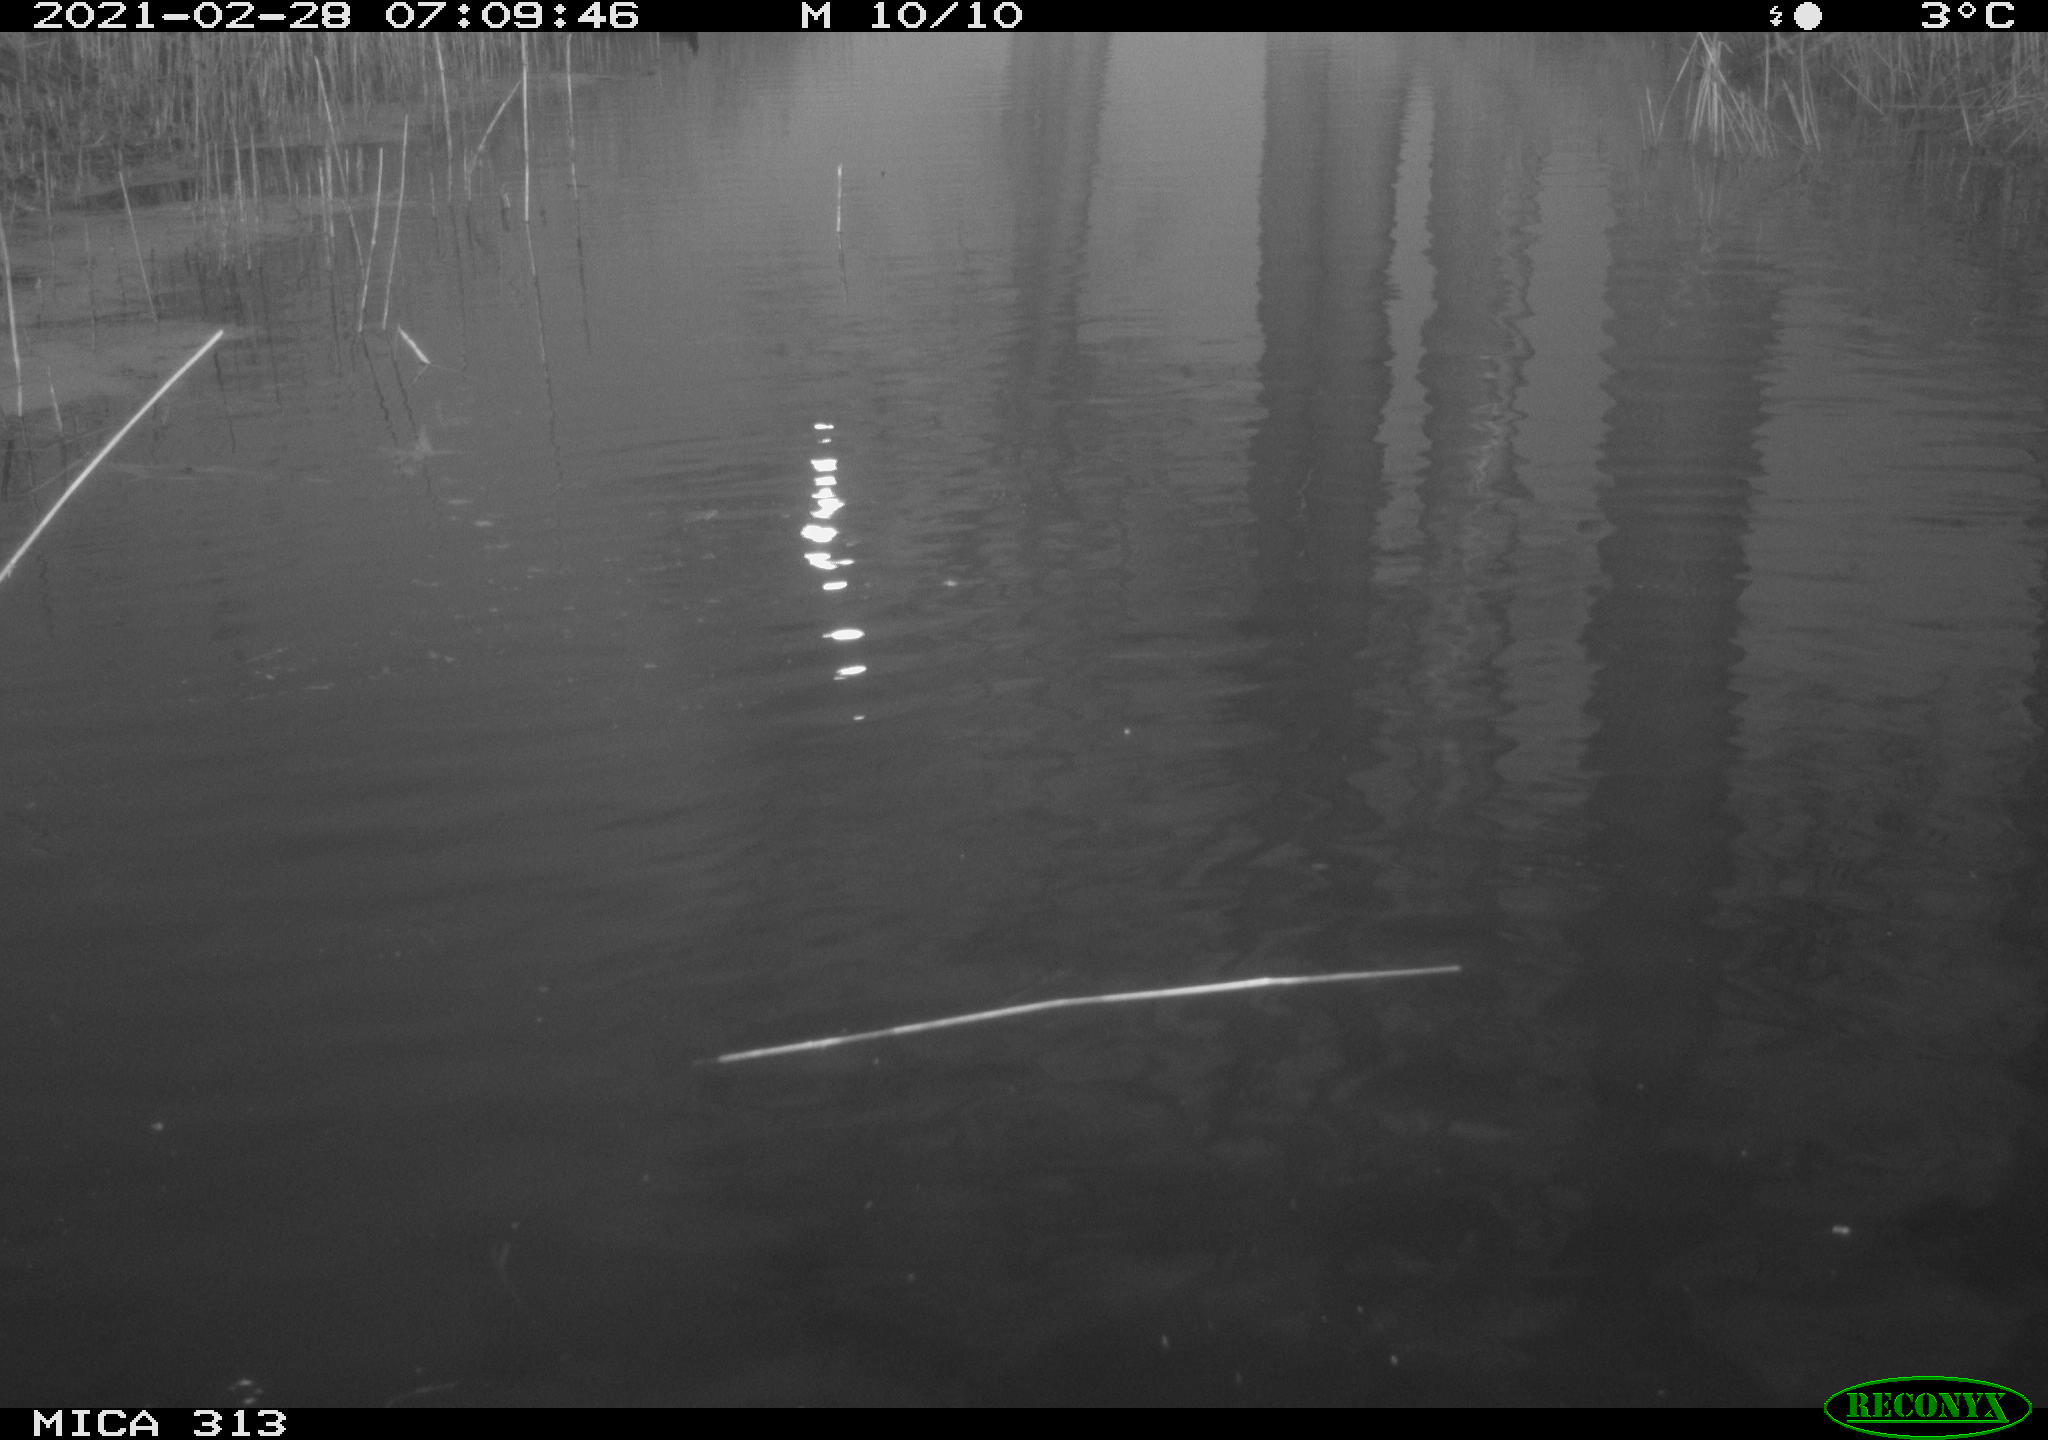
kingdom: Animalia
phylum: Chordata
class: Aves
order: Gruiformes
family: Rallidae
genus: Gallinula
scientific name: Gallinula chloropus
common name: Common moorhen
